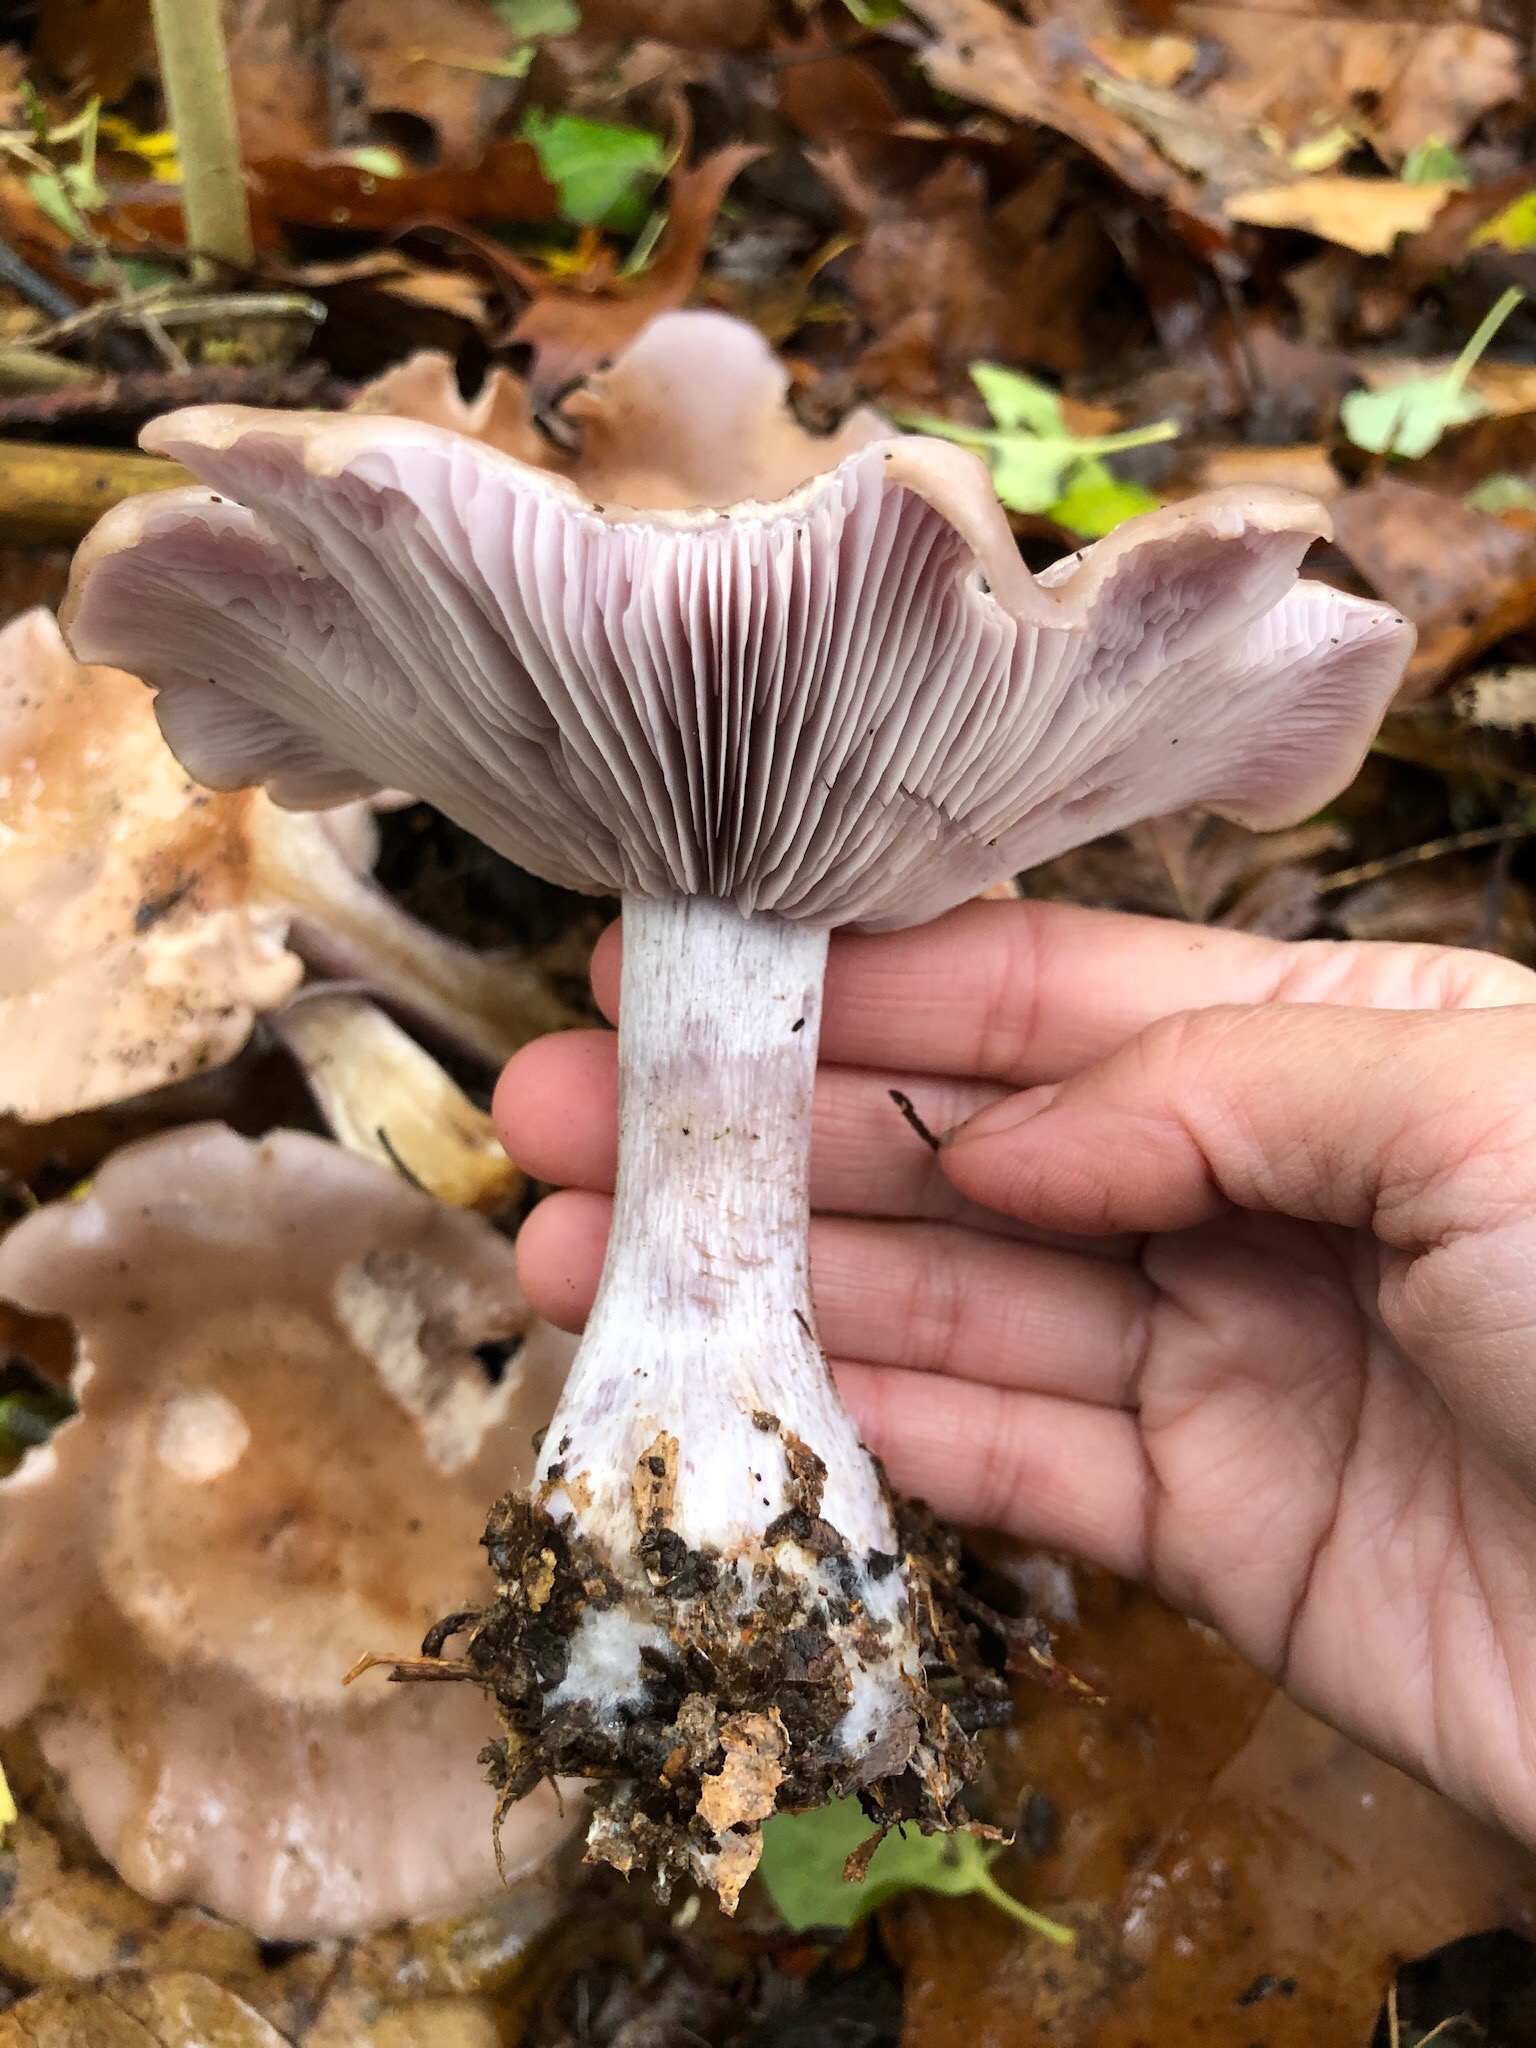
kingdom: Fungi
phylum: Basidiomycota
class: Agaricomycetes
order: Agaricales
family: Tricholomataceae
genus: Lepista
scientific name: Lepista nuda
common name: violet hekseringshat
